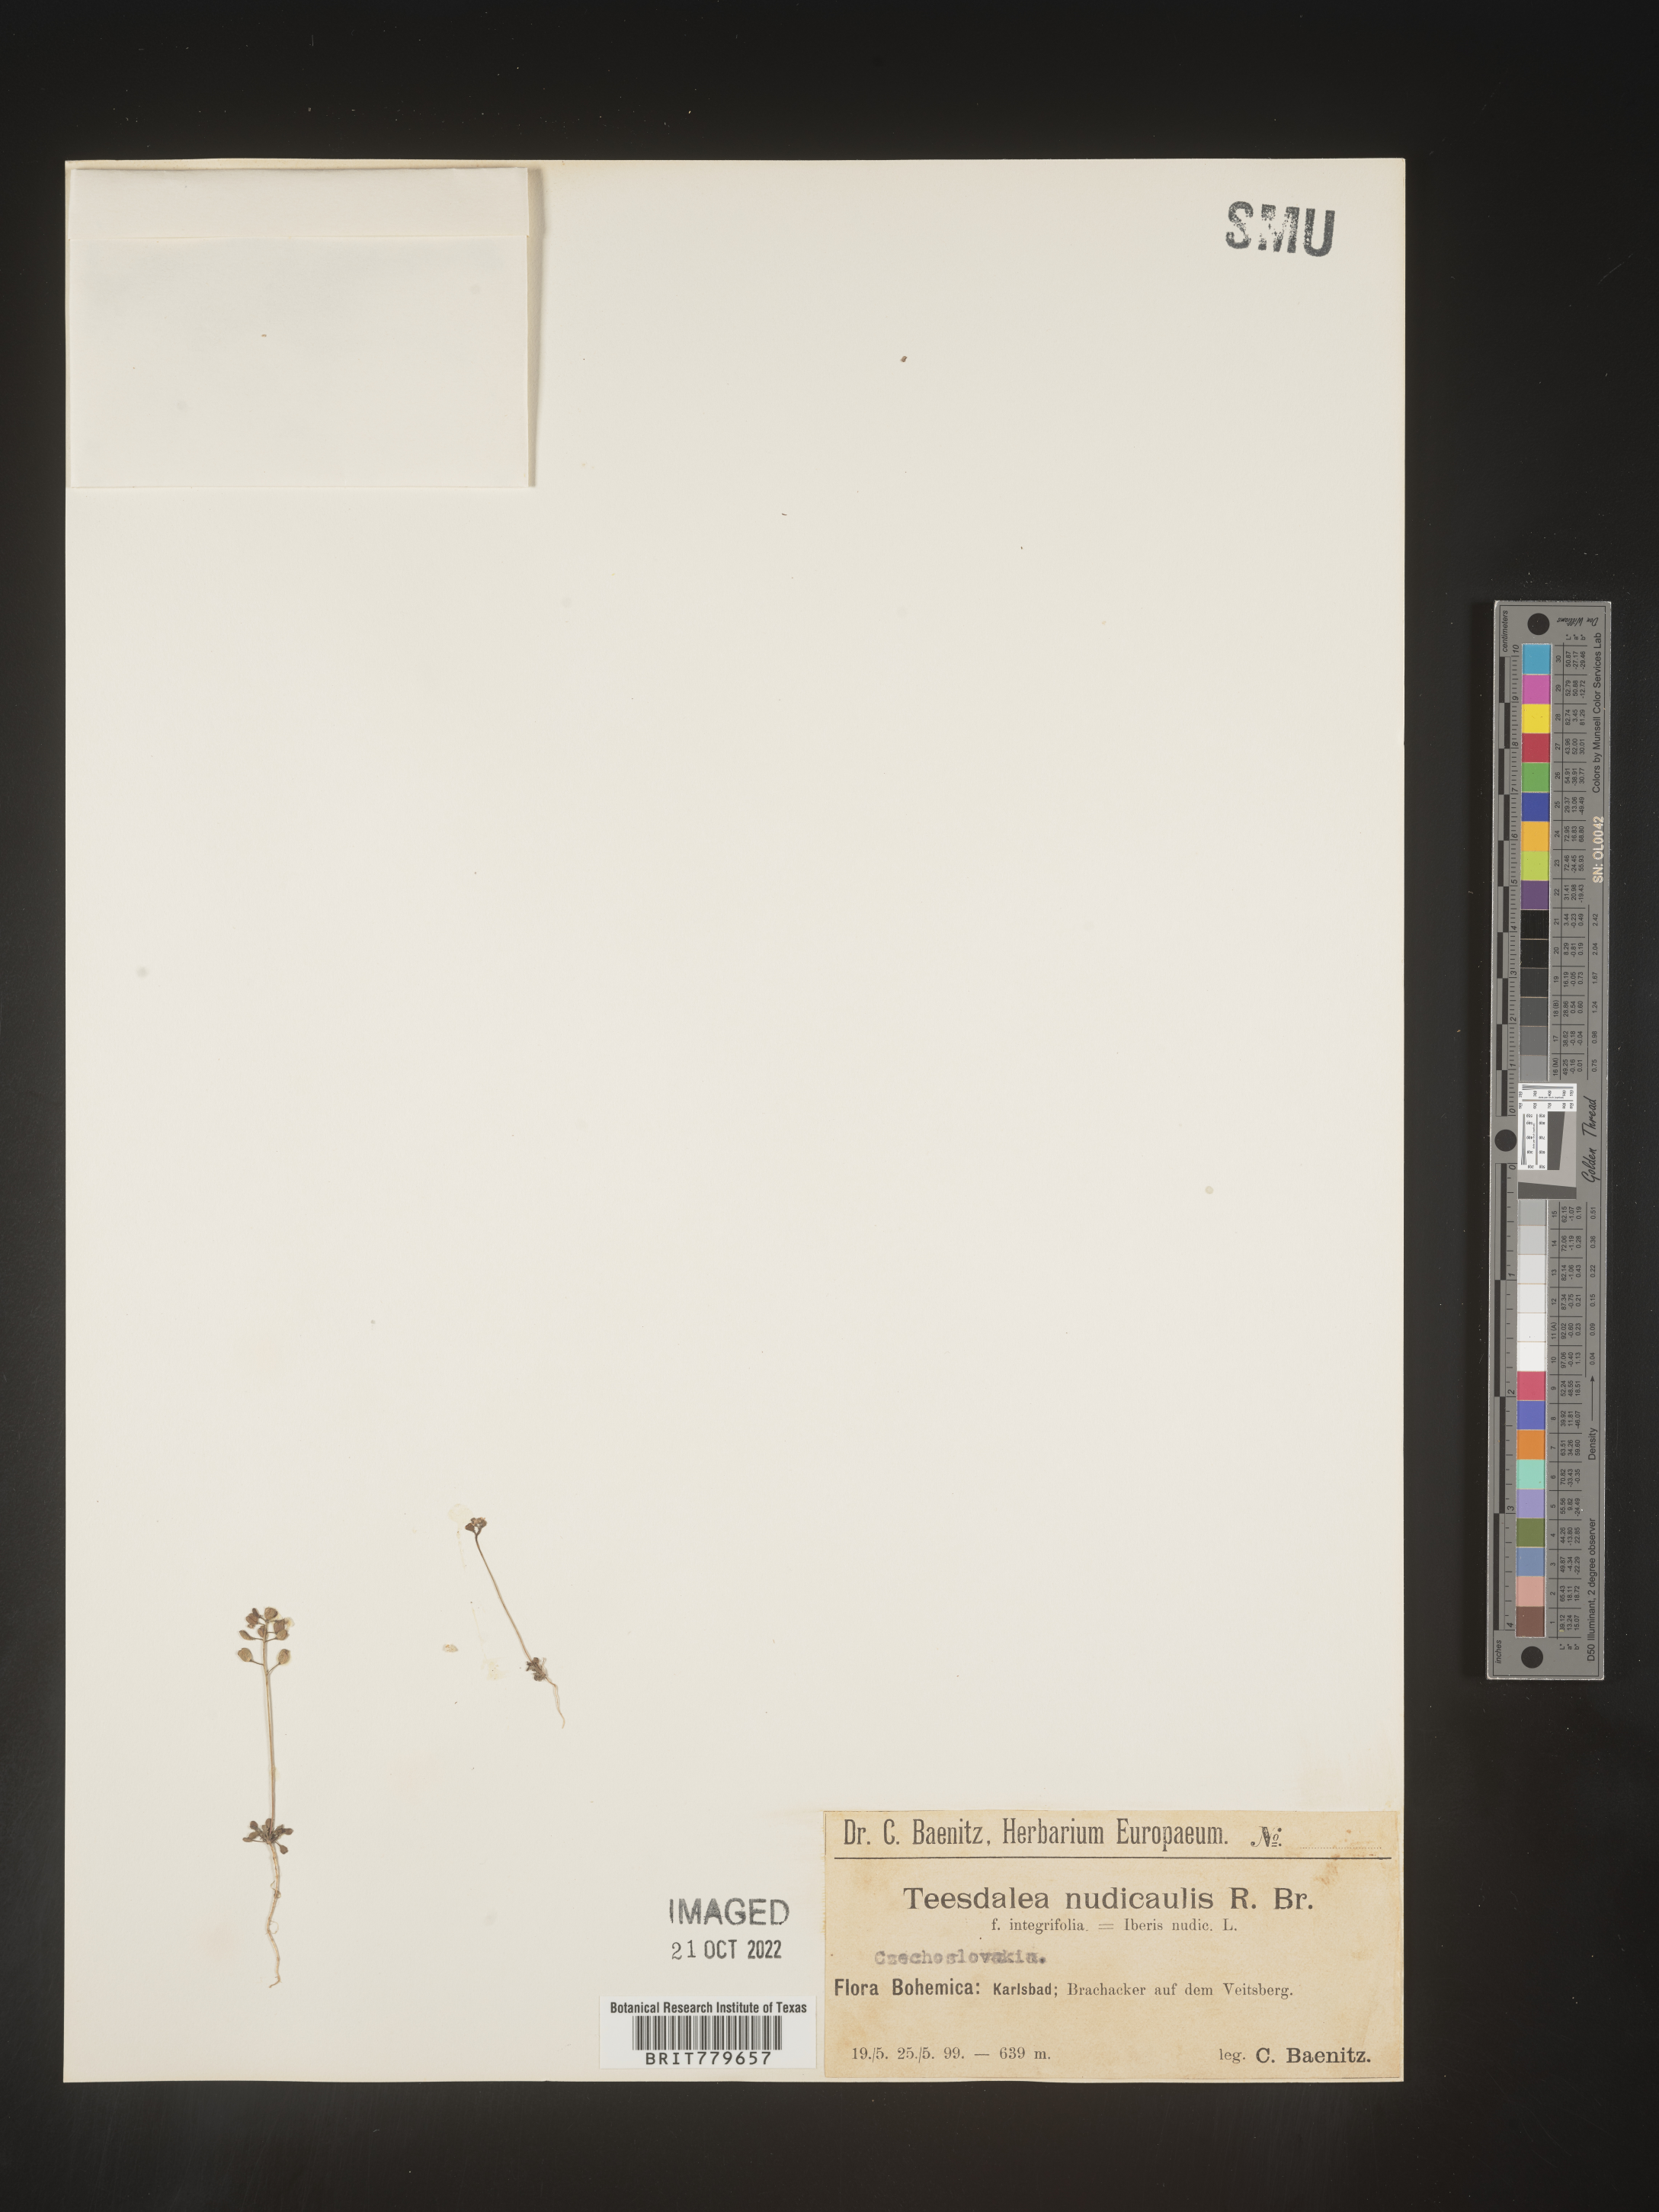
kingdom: Plantae
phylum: Tracheophyta
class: Magnoliopsida
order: Brassicales
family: Brassicaceae
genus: Teesdalia
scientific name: Teesdalia
